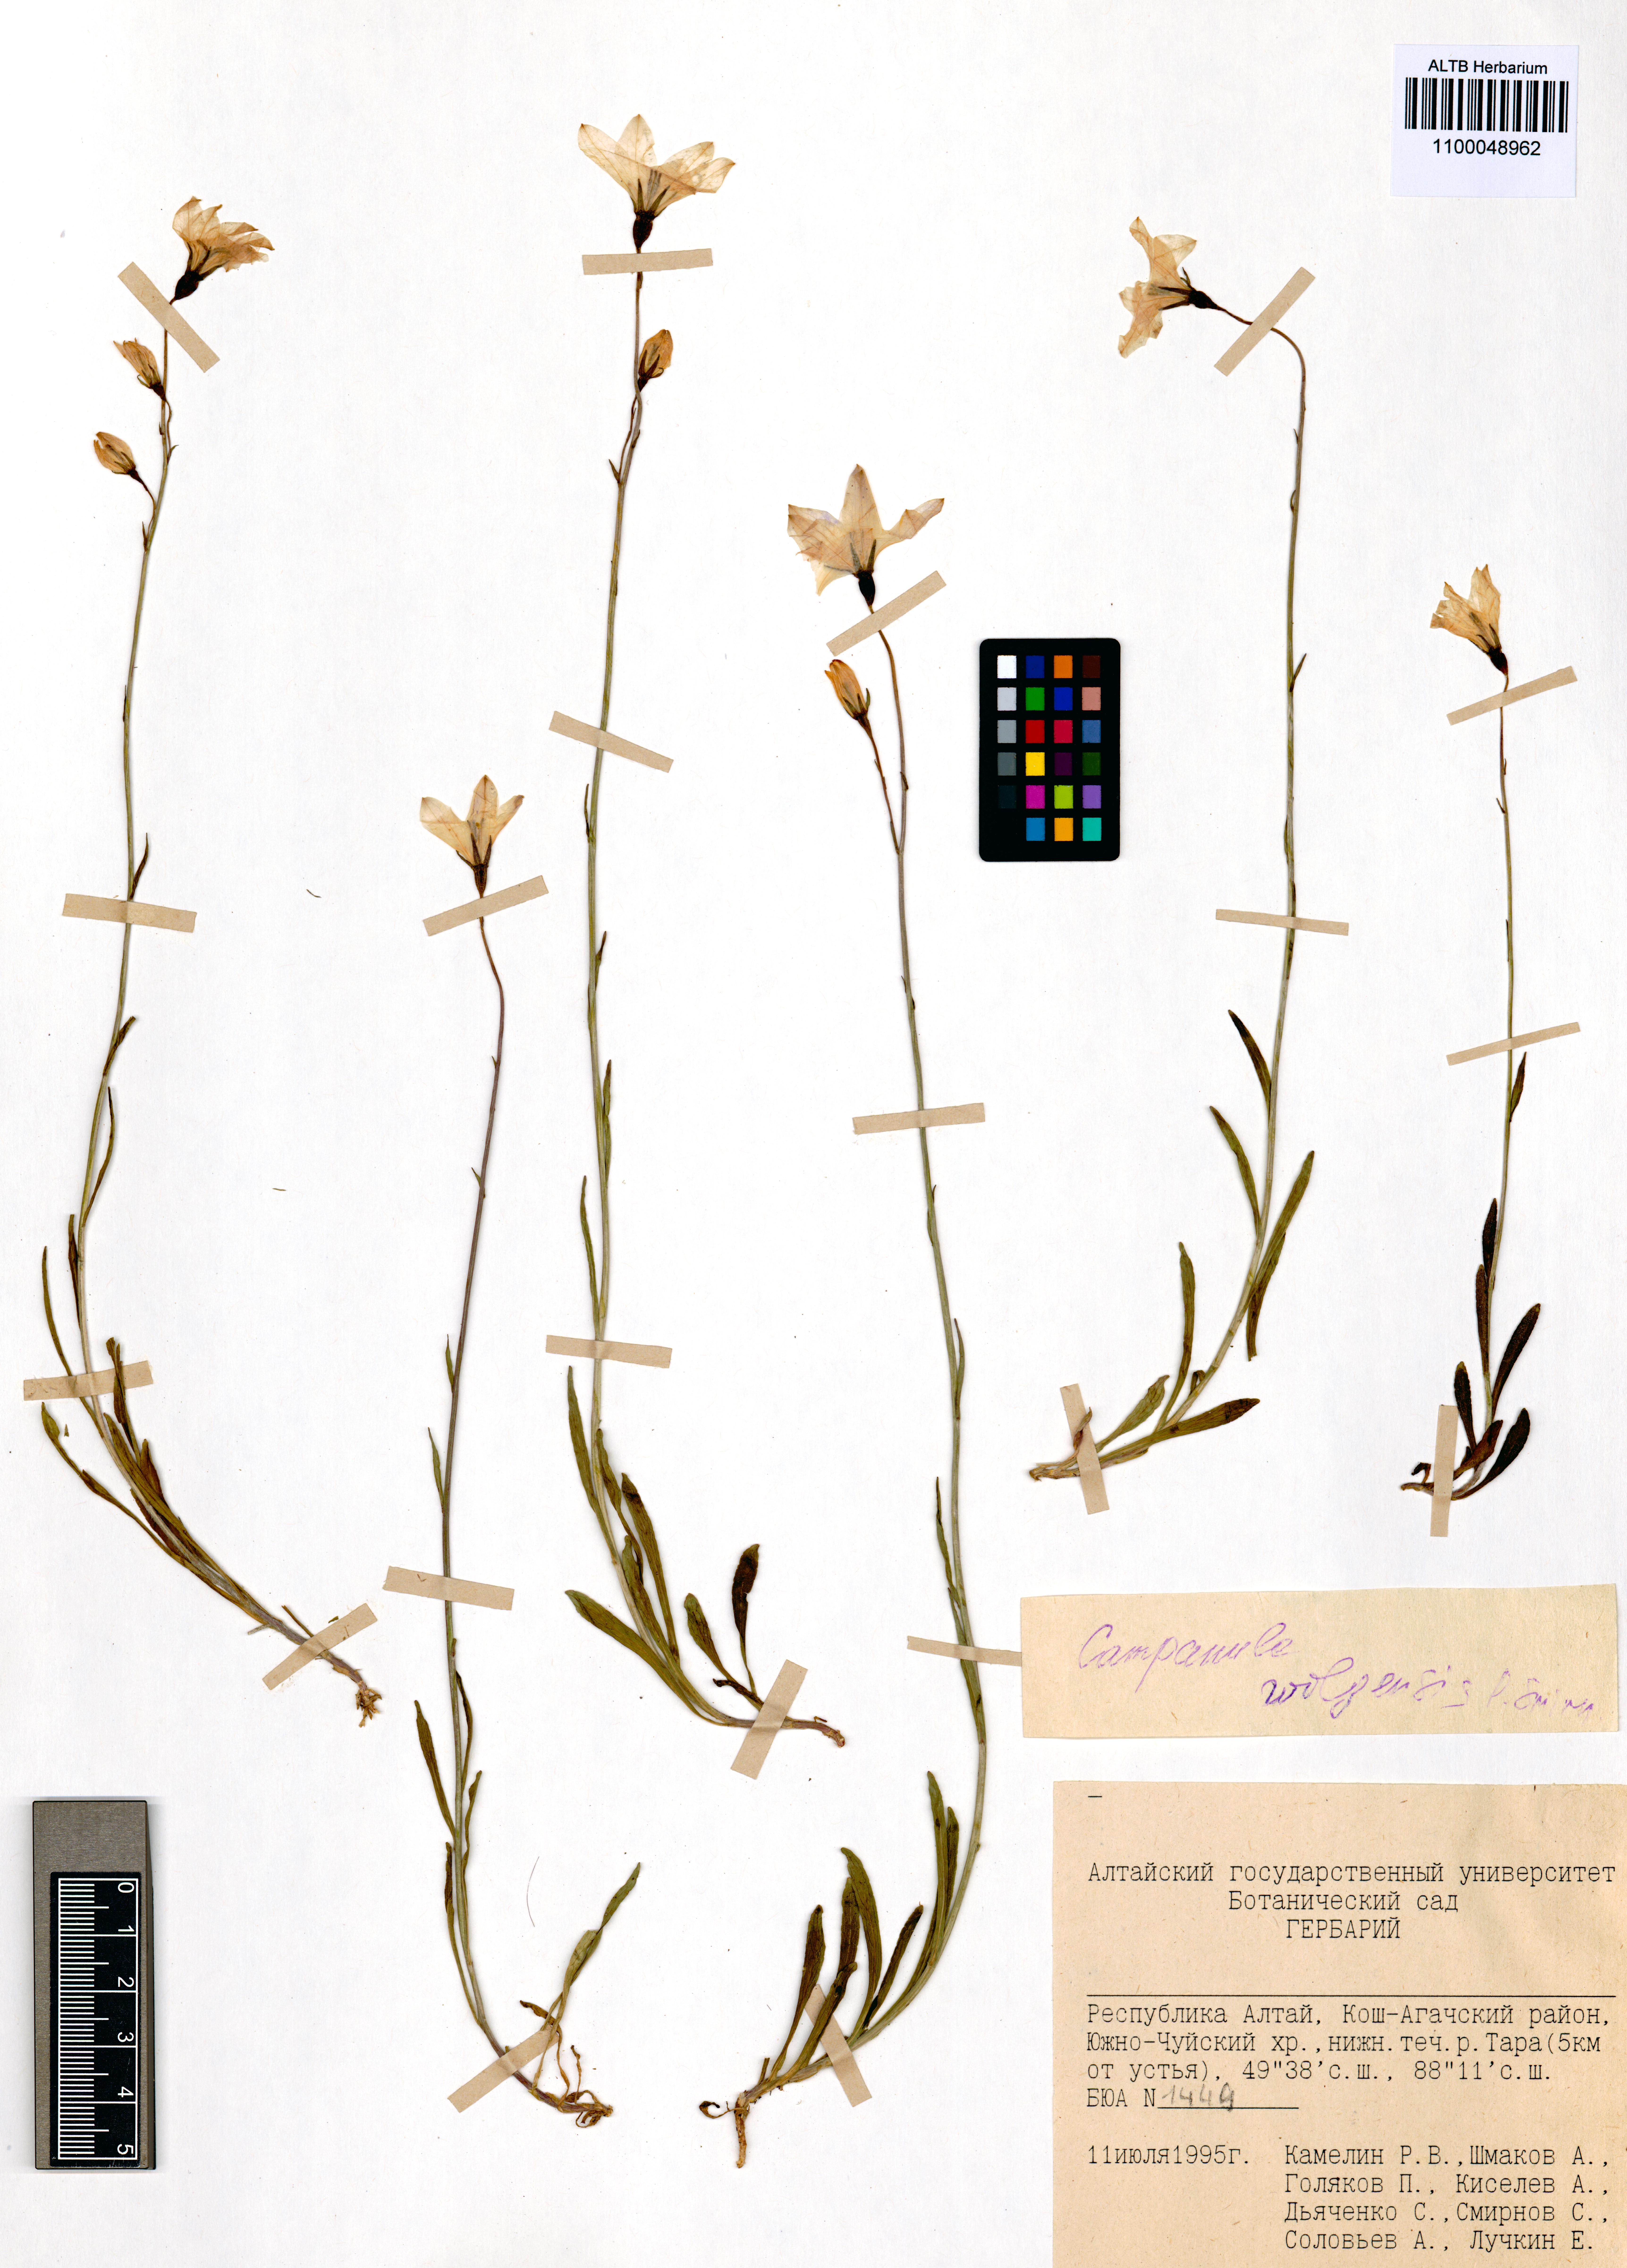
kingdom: Plantae
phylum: Tracheophyta
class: Magnoliopsida
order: Asterales
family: Campanulaceae
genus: Campanula
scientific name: Campanula stevenii
